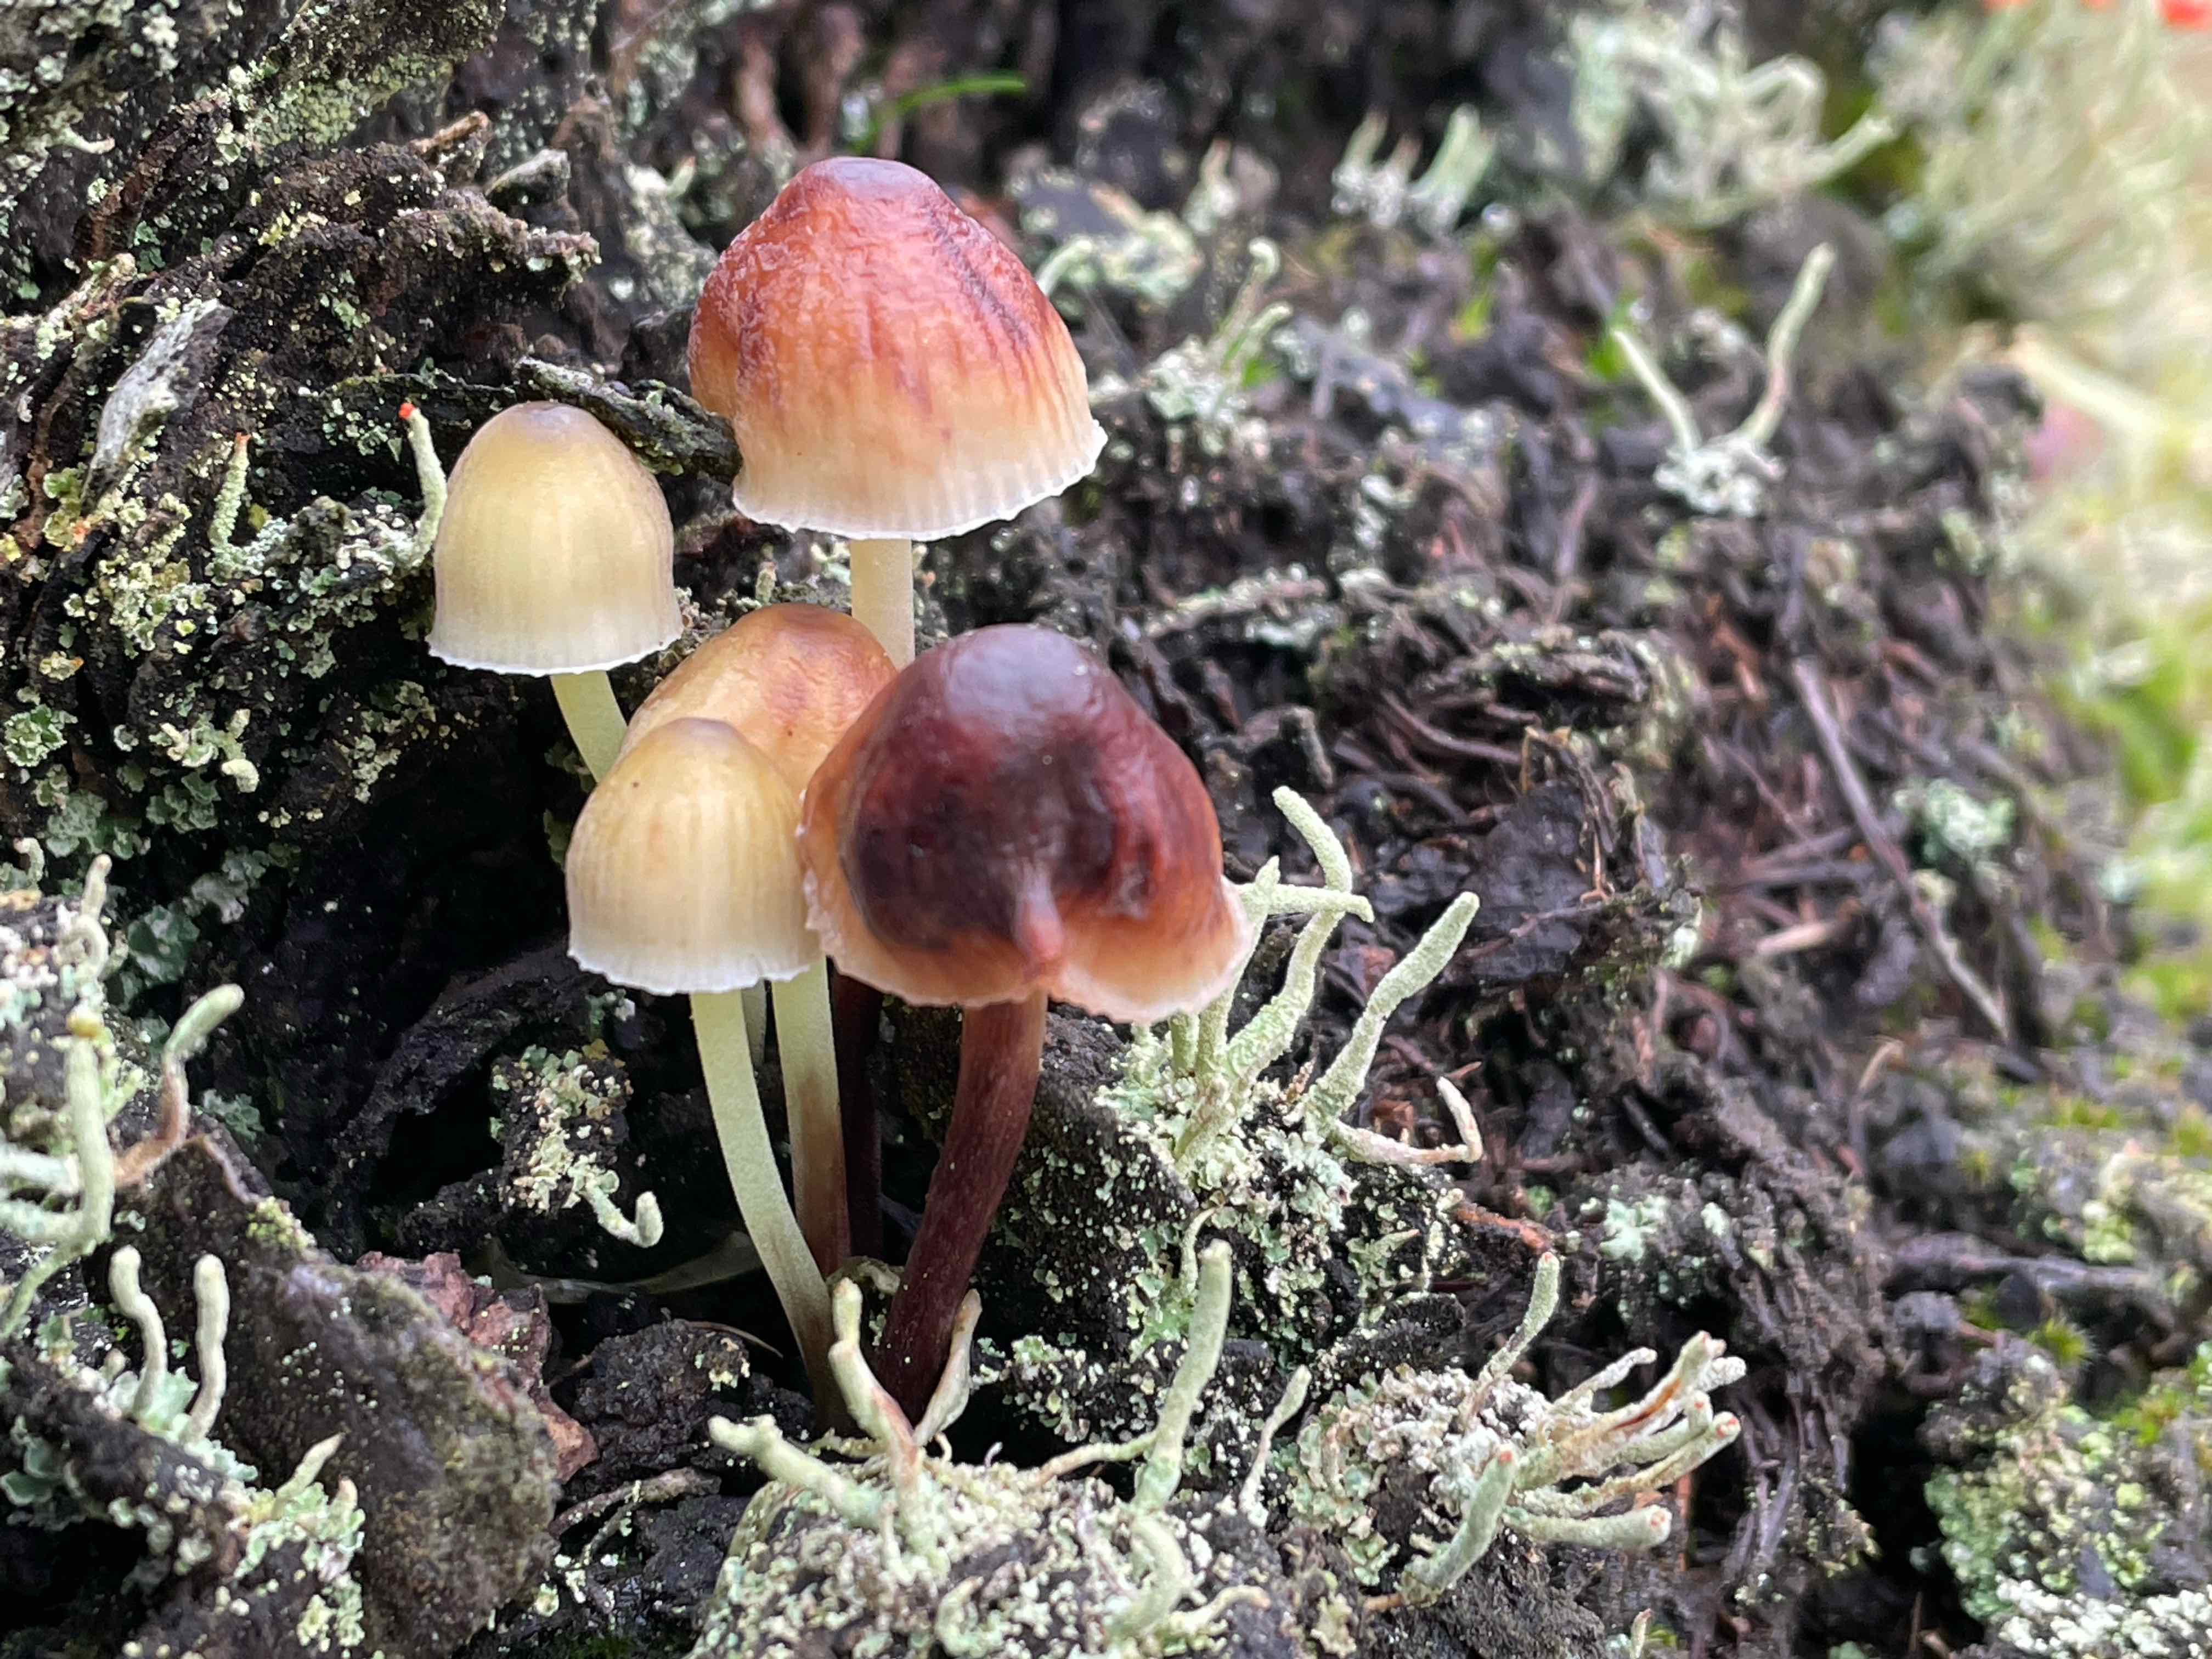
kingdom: Fungi
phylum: Basidiomycota
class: Agaricomycetes
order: Agaricales
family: Mycenaceae
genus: Mycena
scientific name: Mycena epipterygia
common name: gulstokket huesvamp
